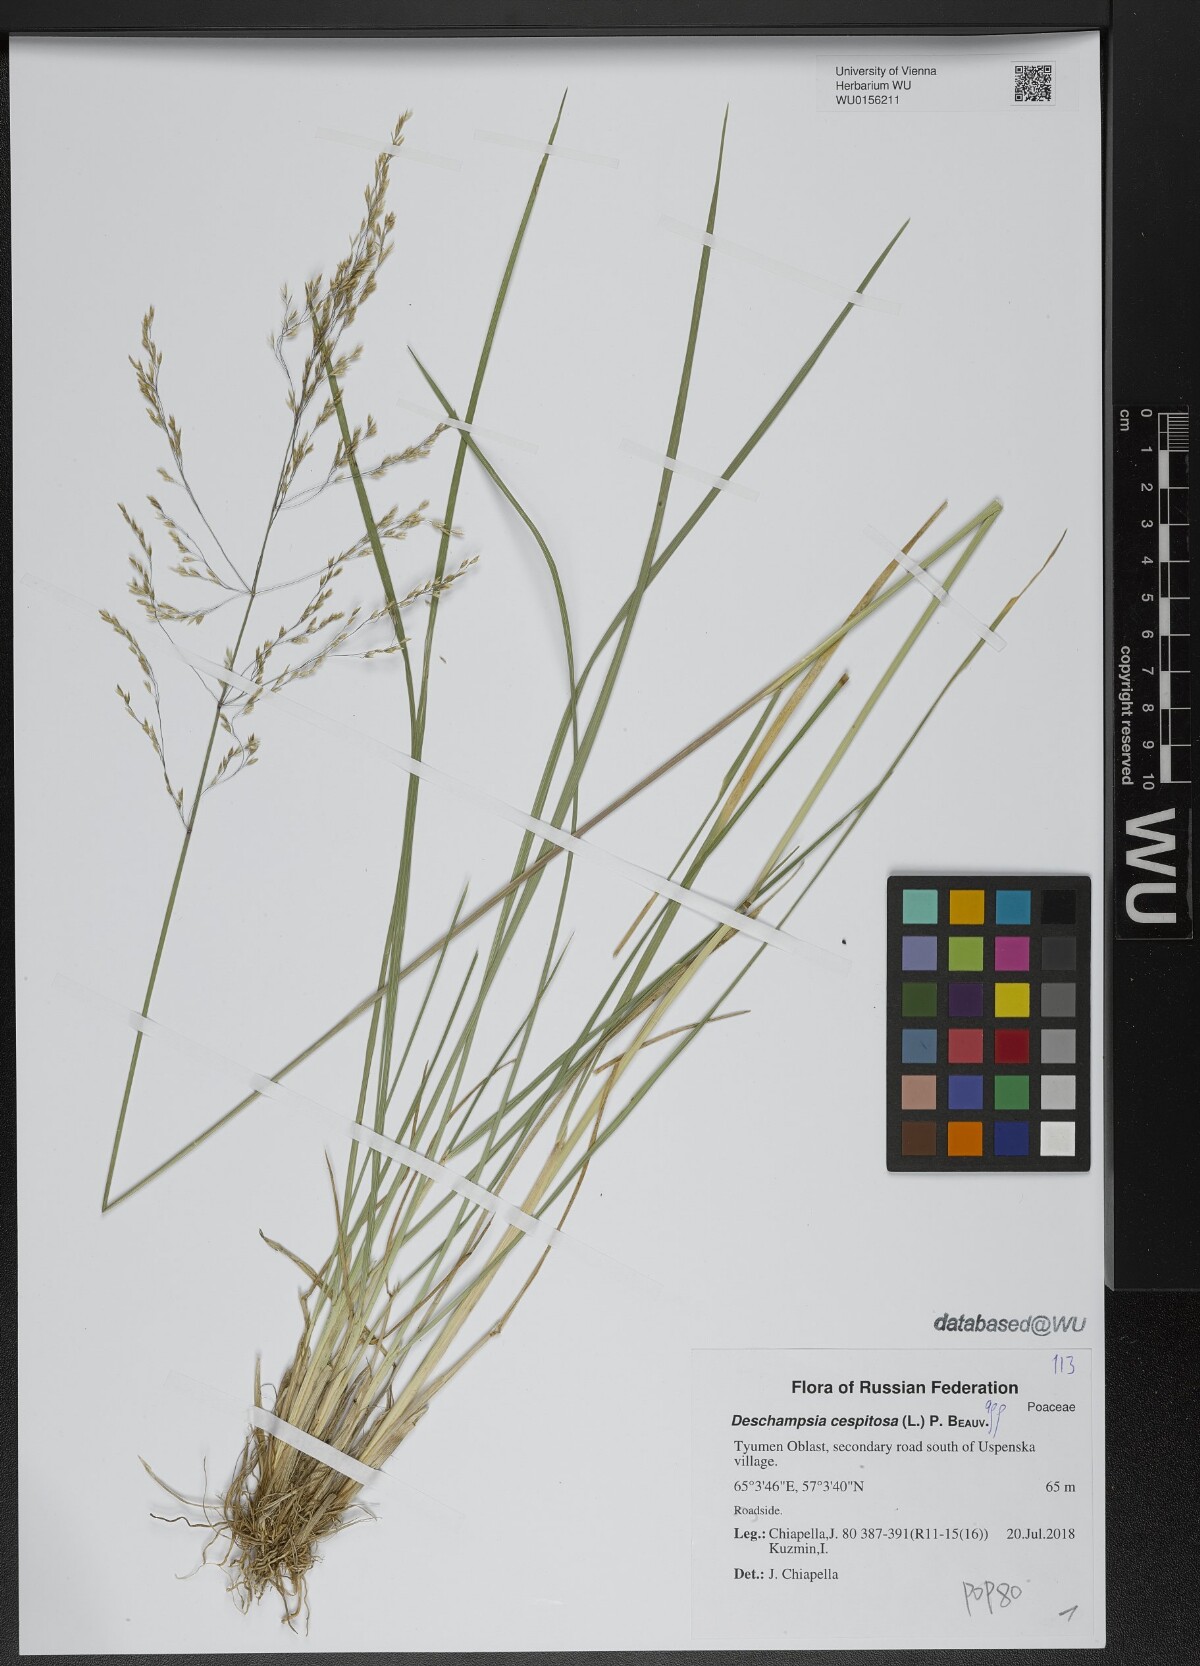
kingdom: Plantae
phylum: Tracheophyta
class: Liliopsida
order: Poales
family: Poaceae
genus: Deschampsia
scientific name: Deschampsia cespitosa
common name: Tufted hair-grass
